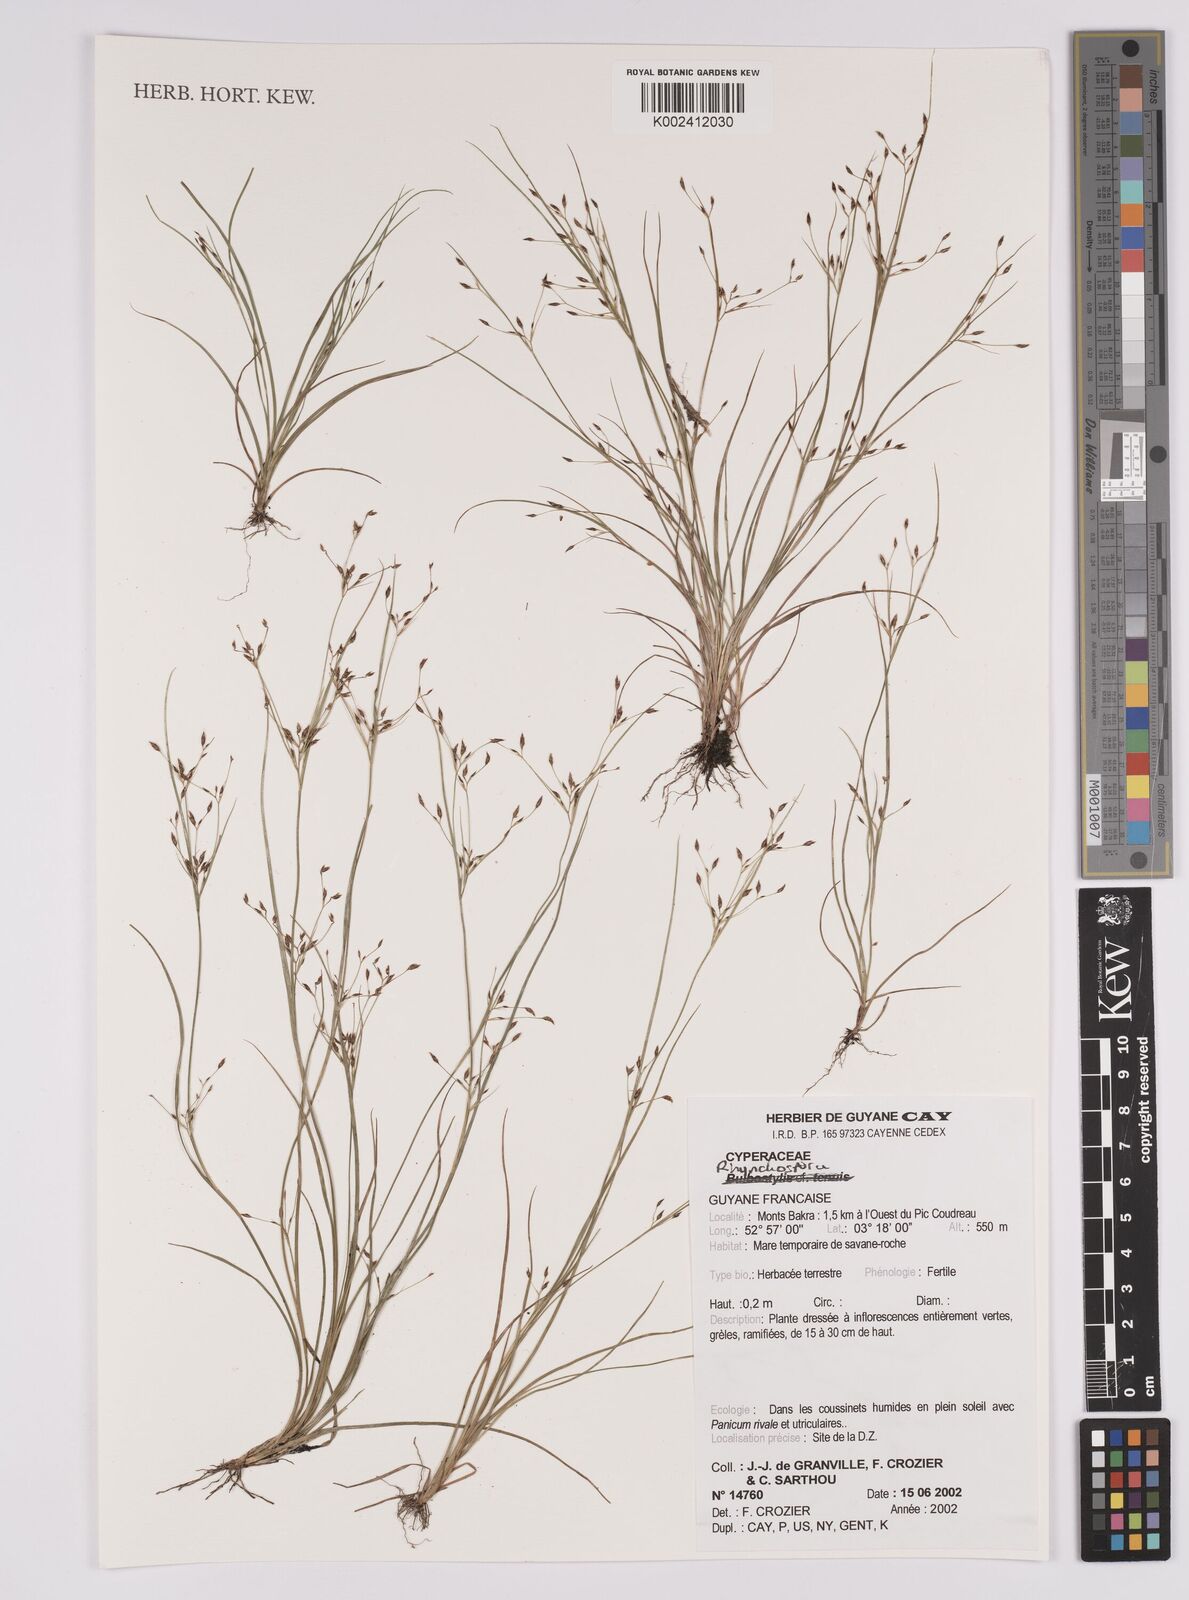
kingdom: Plantae
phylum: Tracheophyta
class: Liliopsida
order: Poales
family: Cyperaceae
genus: Rhynchospora
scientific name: Rhynchospora
